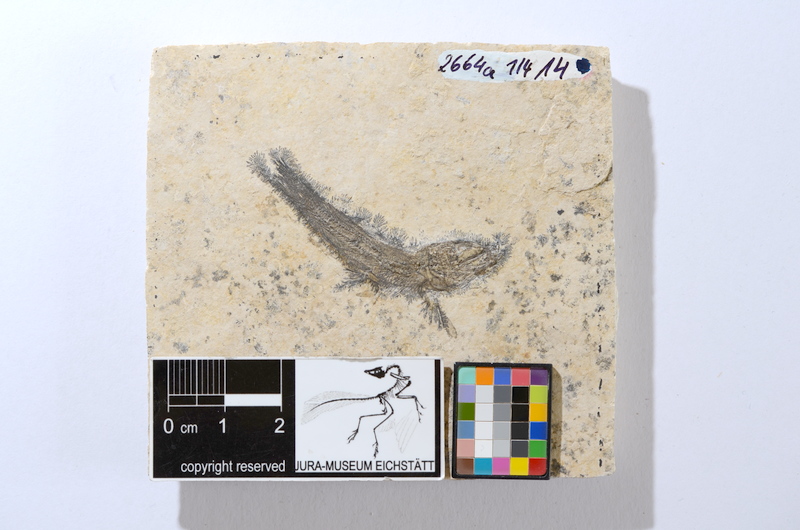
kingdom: Animalia
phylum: Chordata
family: Ascalaboidae
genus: Tharsis
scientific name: Tharsis dubius
